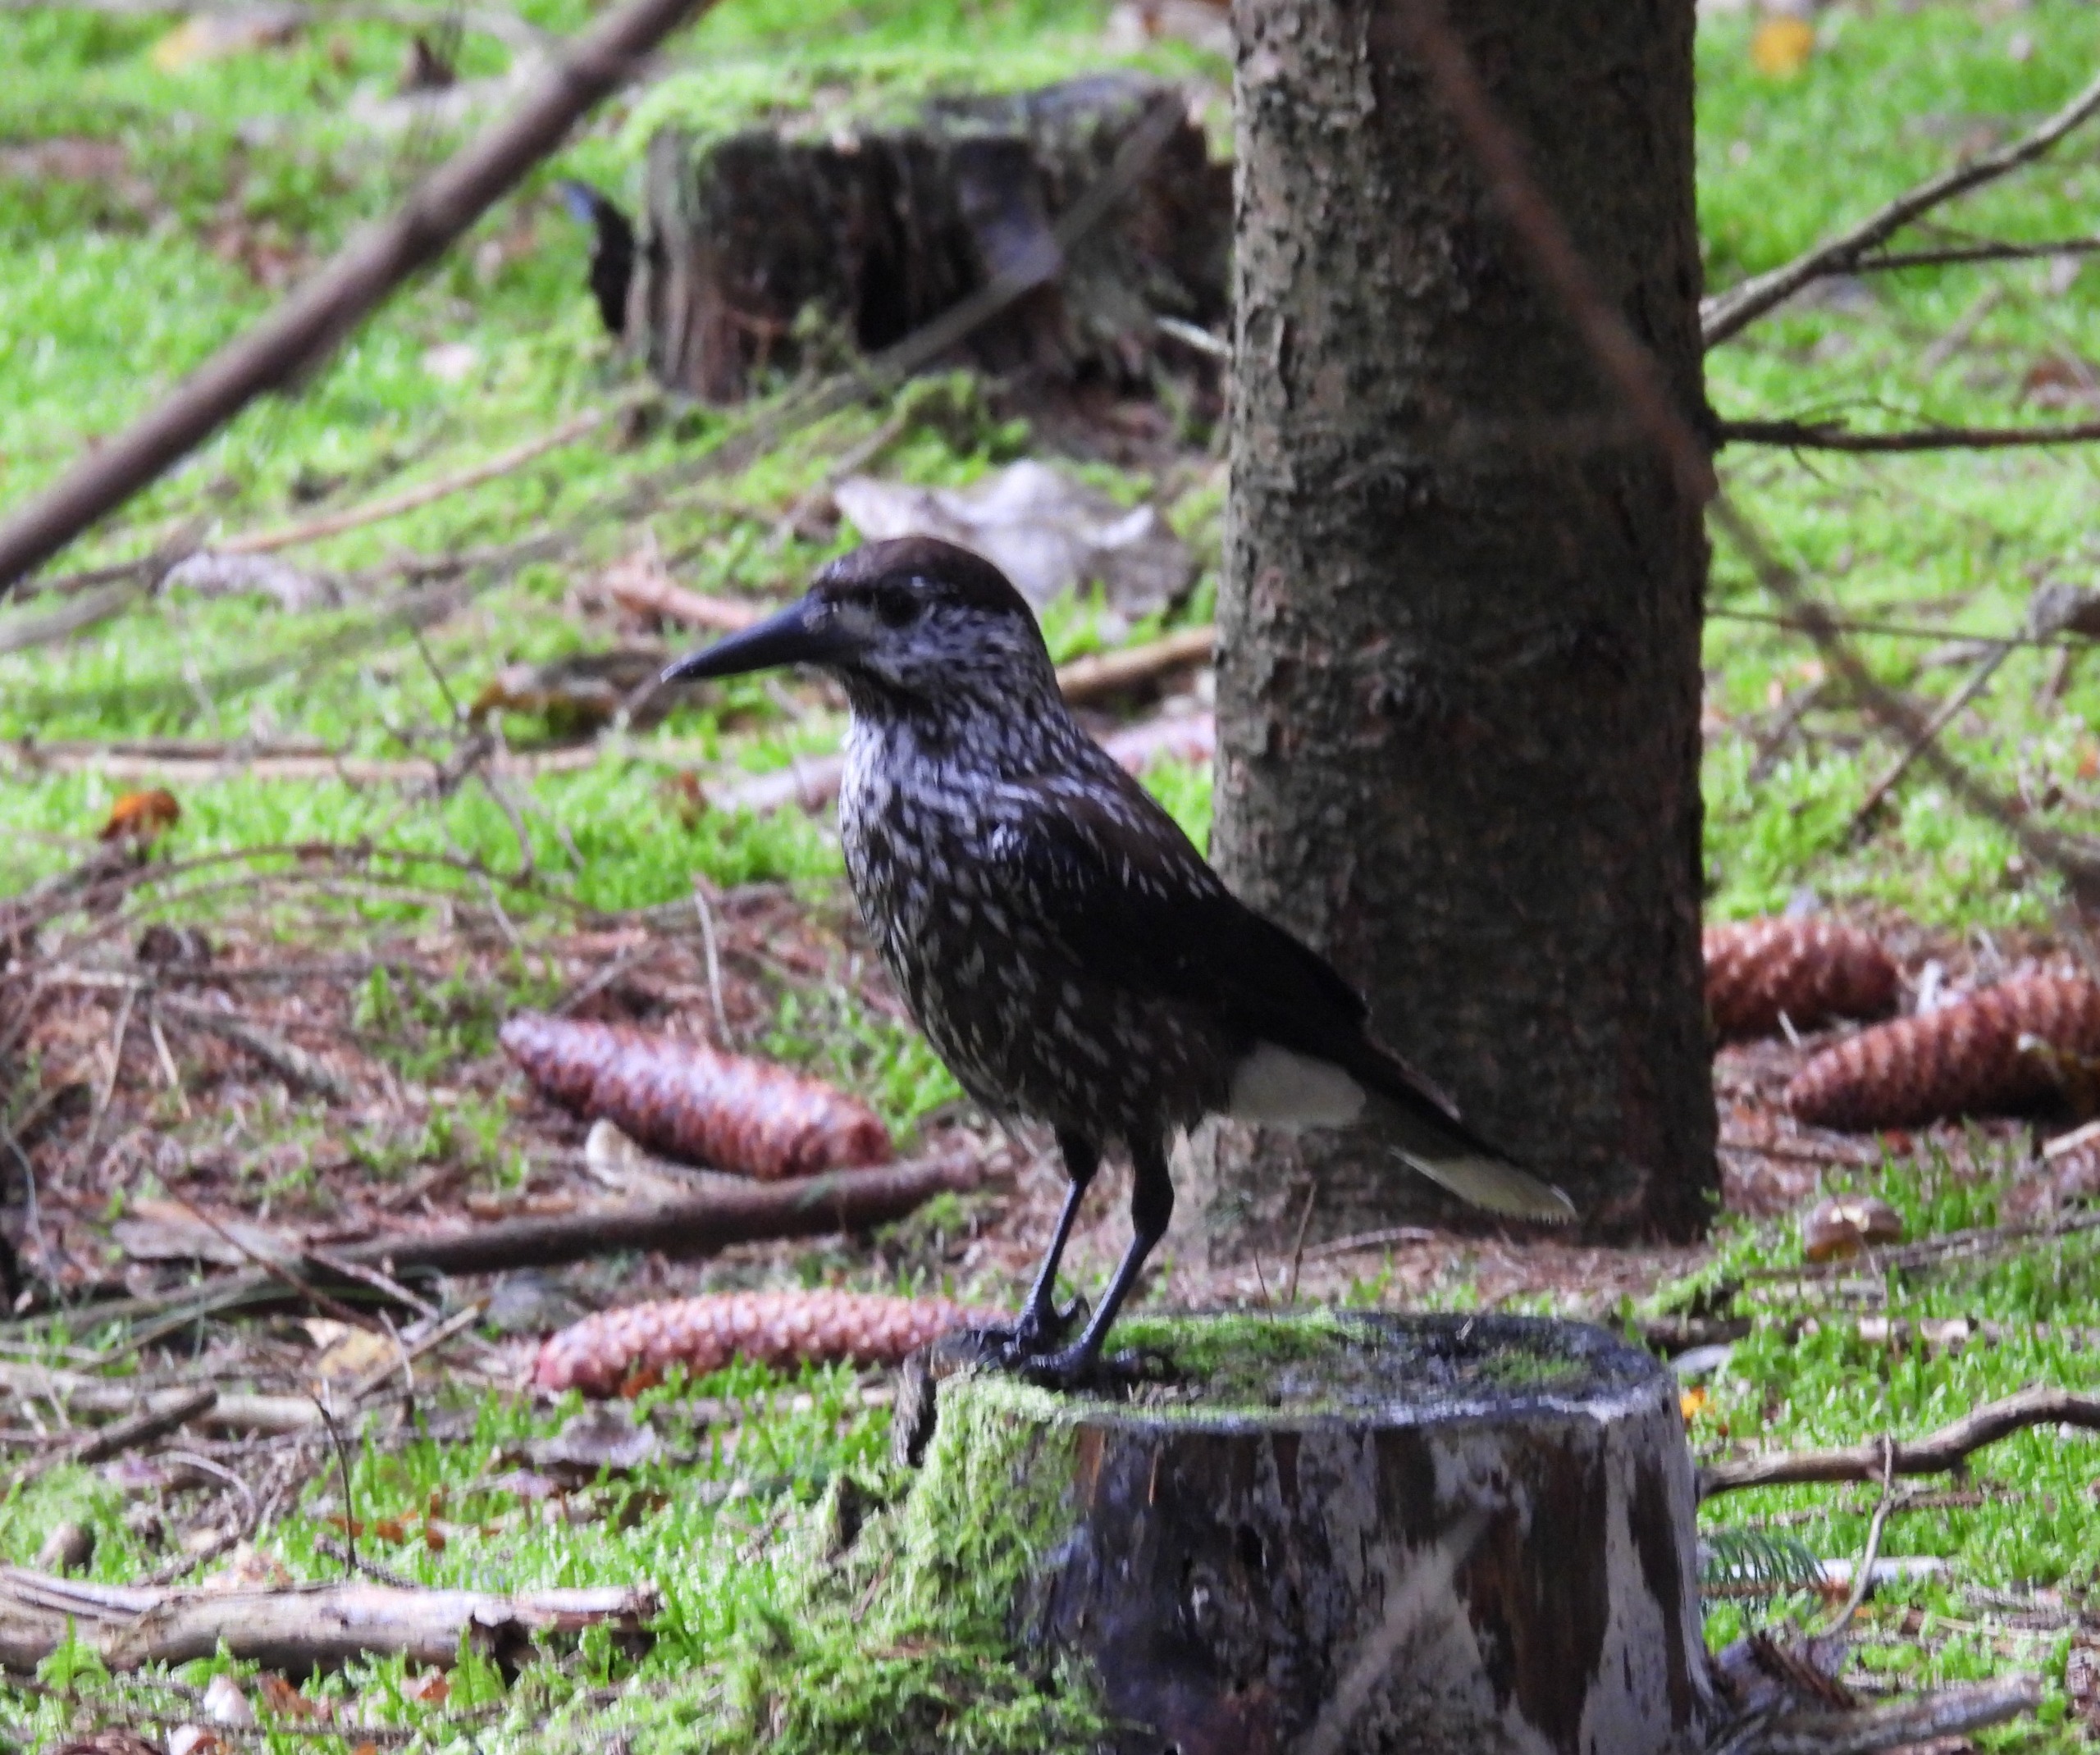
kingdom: Animalia
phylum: Chordata
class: Aves
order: Passeriformes
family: Corvidae
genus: Nucifraga
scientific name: Nucifraga caryocatactes
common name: Nøddekrige
